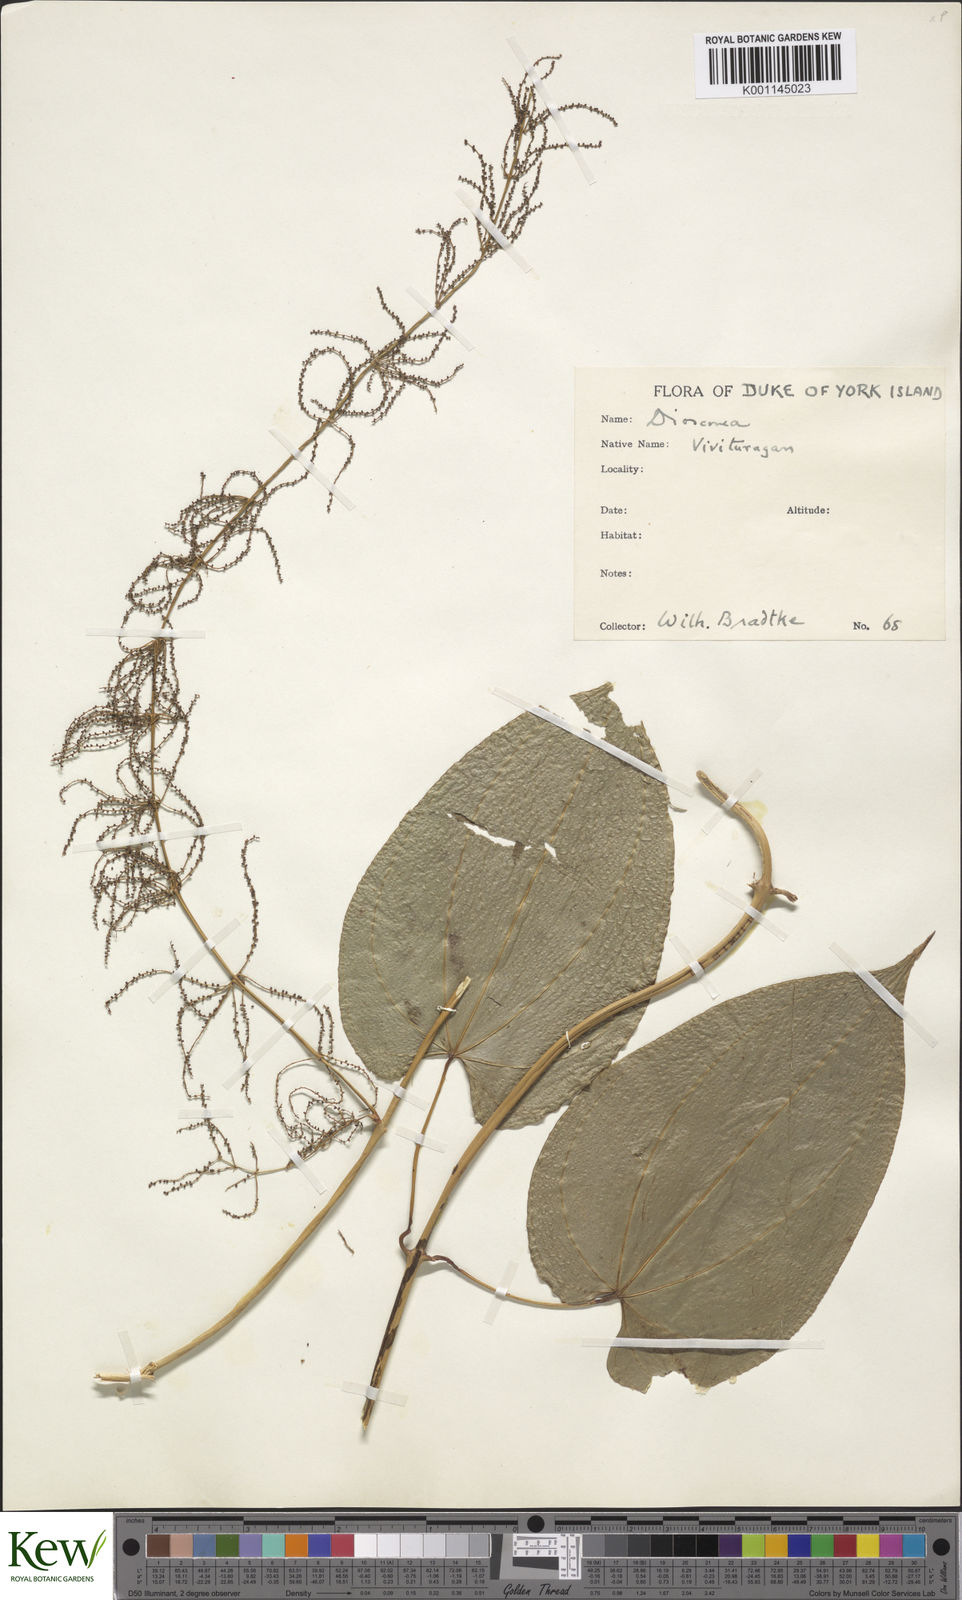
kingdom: Plantae
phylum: Tracheophyta
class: Liliopsida
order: Dioscoreales
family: Dioscoreaceae
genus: Dioscorea
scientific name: Dioscorea nummularia
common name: Pacific yam
